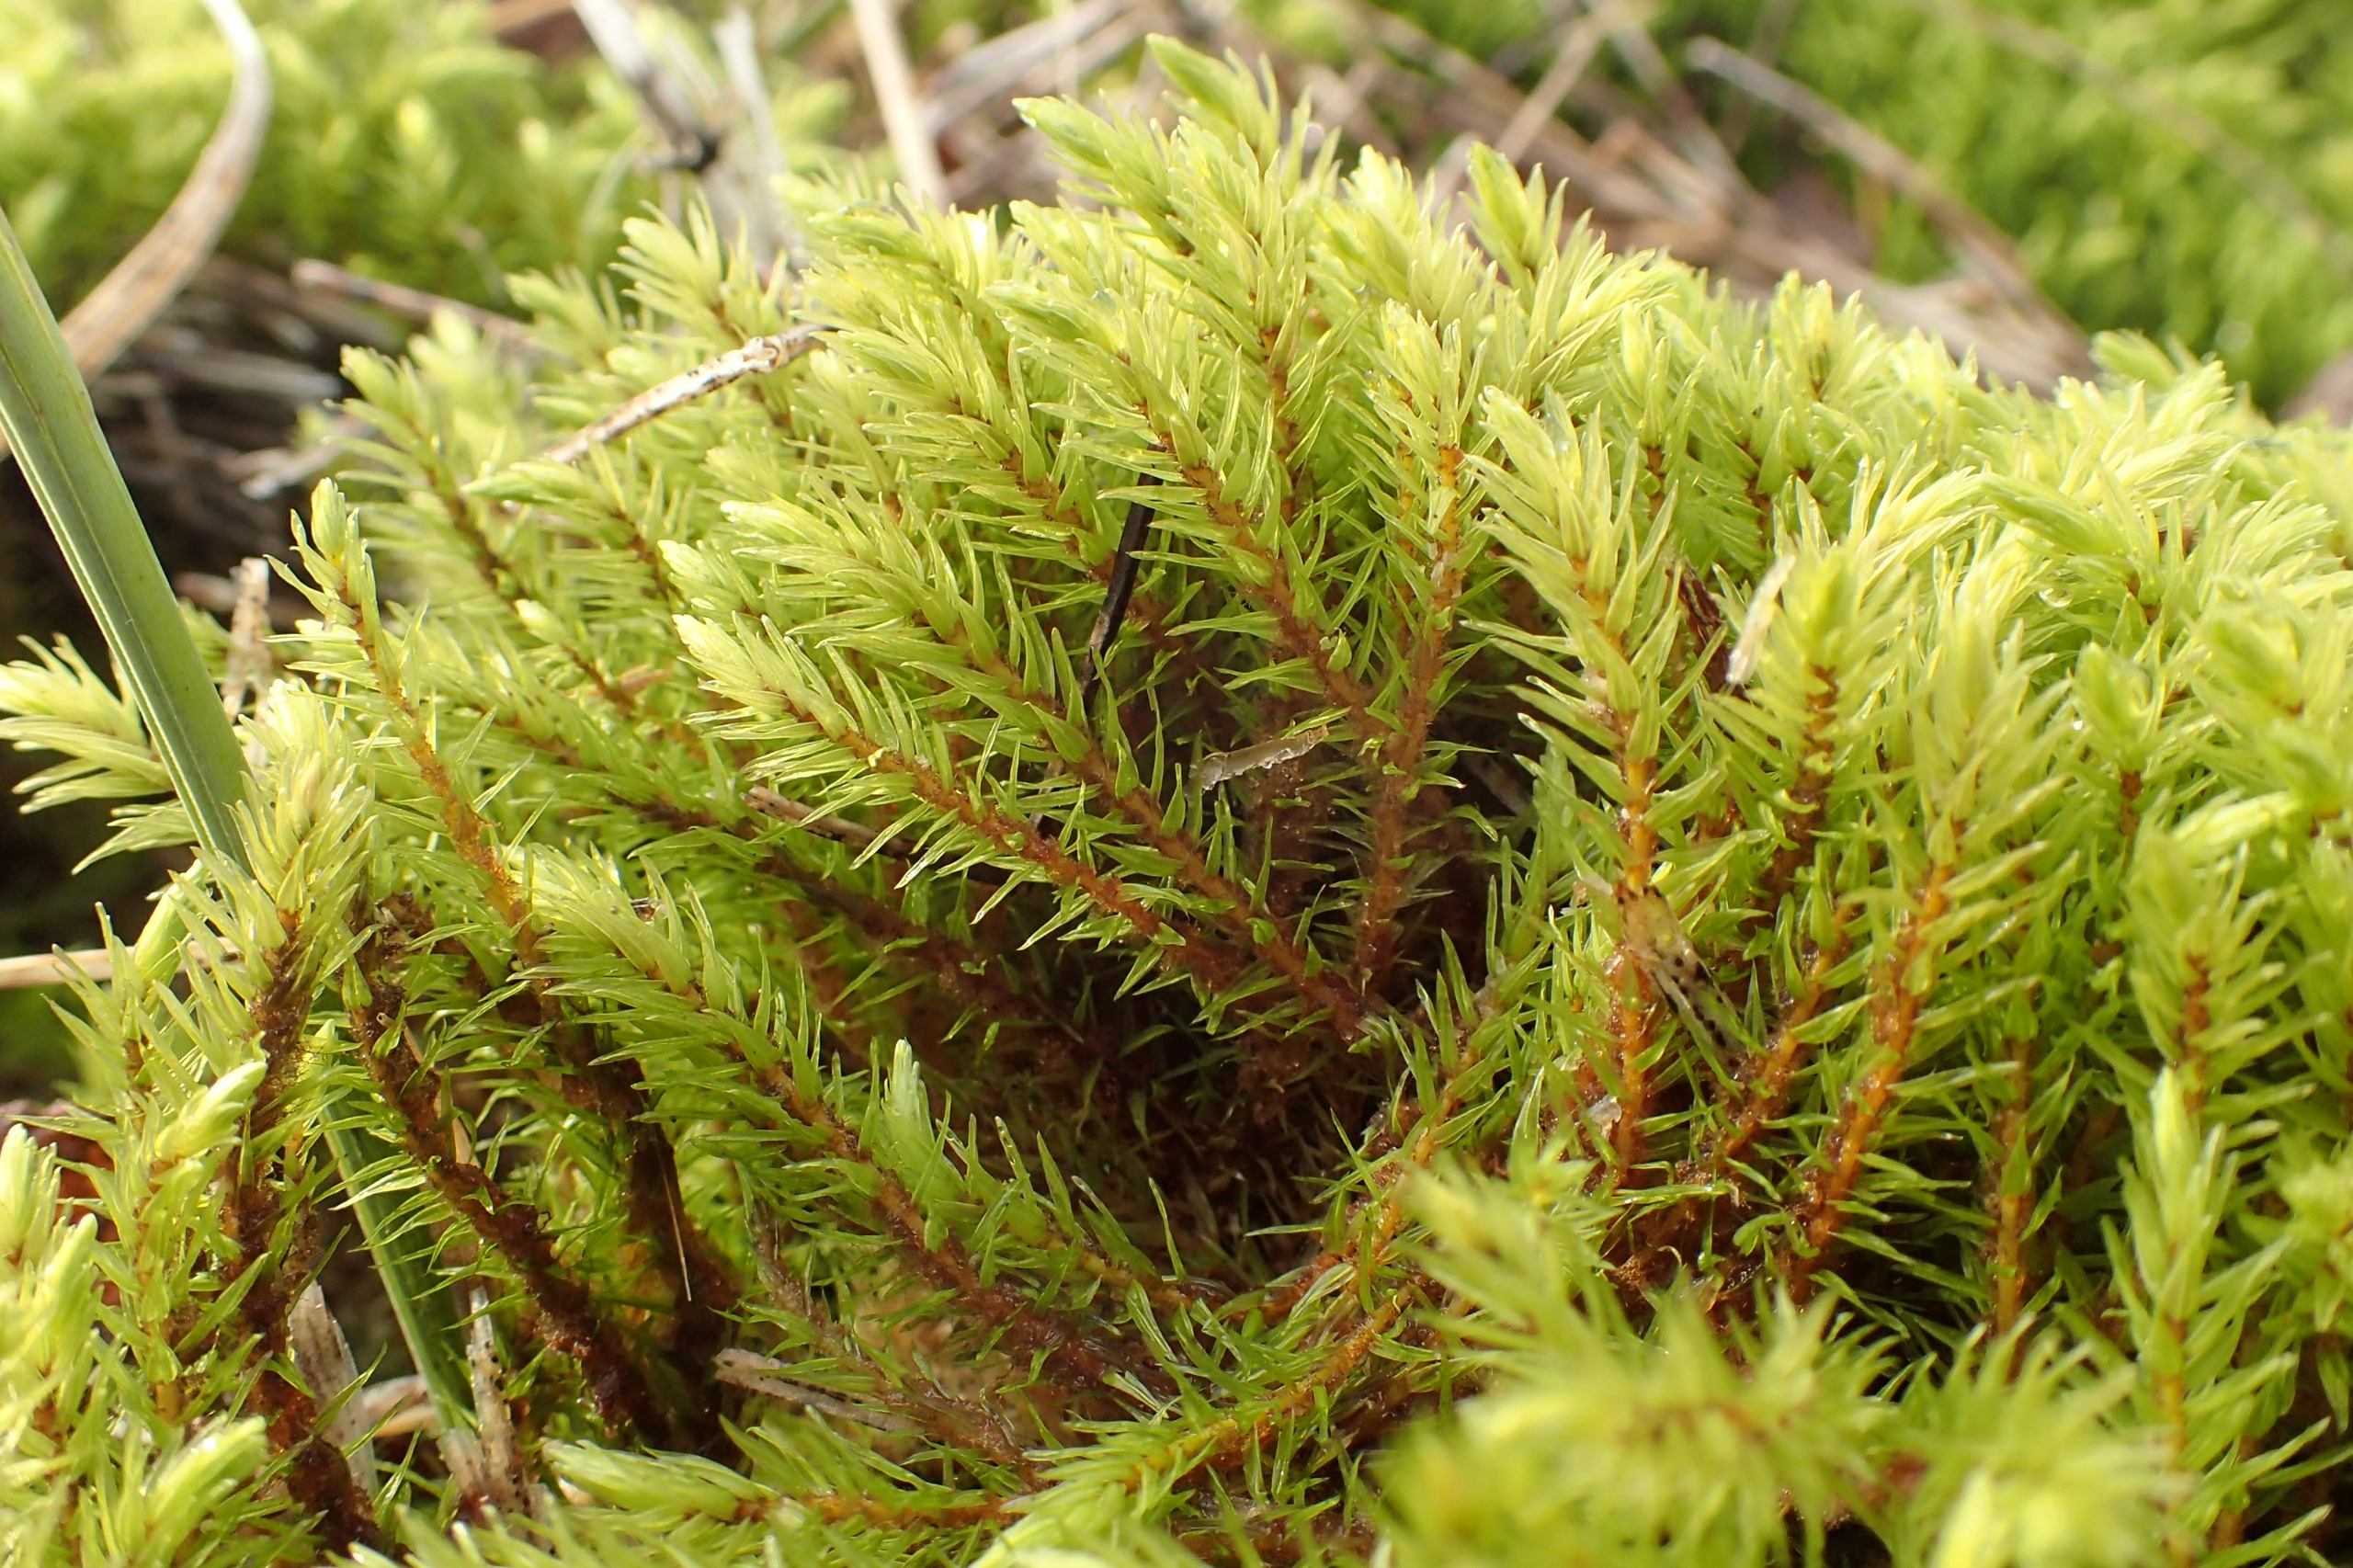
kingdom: Plantae
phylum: Bryophyta
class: Bryopsida
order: Aulacomniales
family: Aulacomniaceae
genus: Aulacomnium
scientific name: Aulacomnium palustre
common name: Almindelig filtmos
